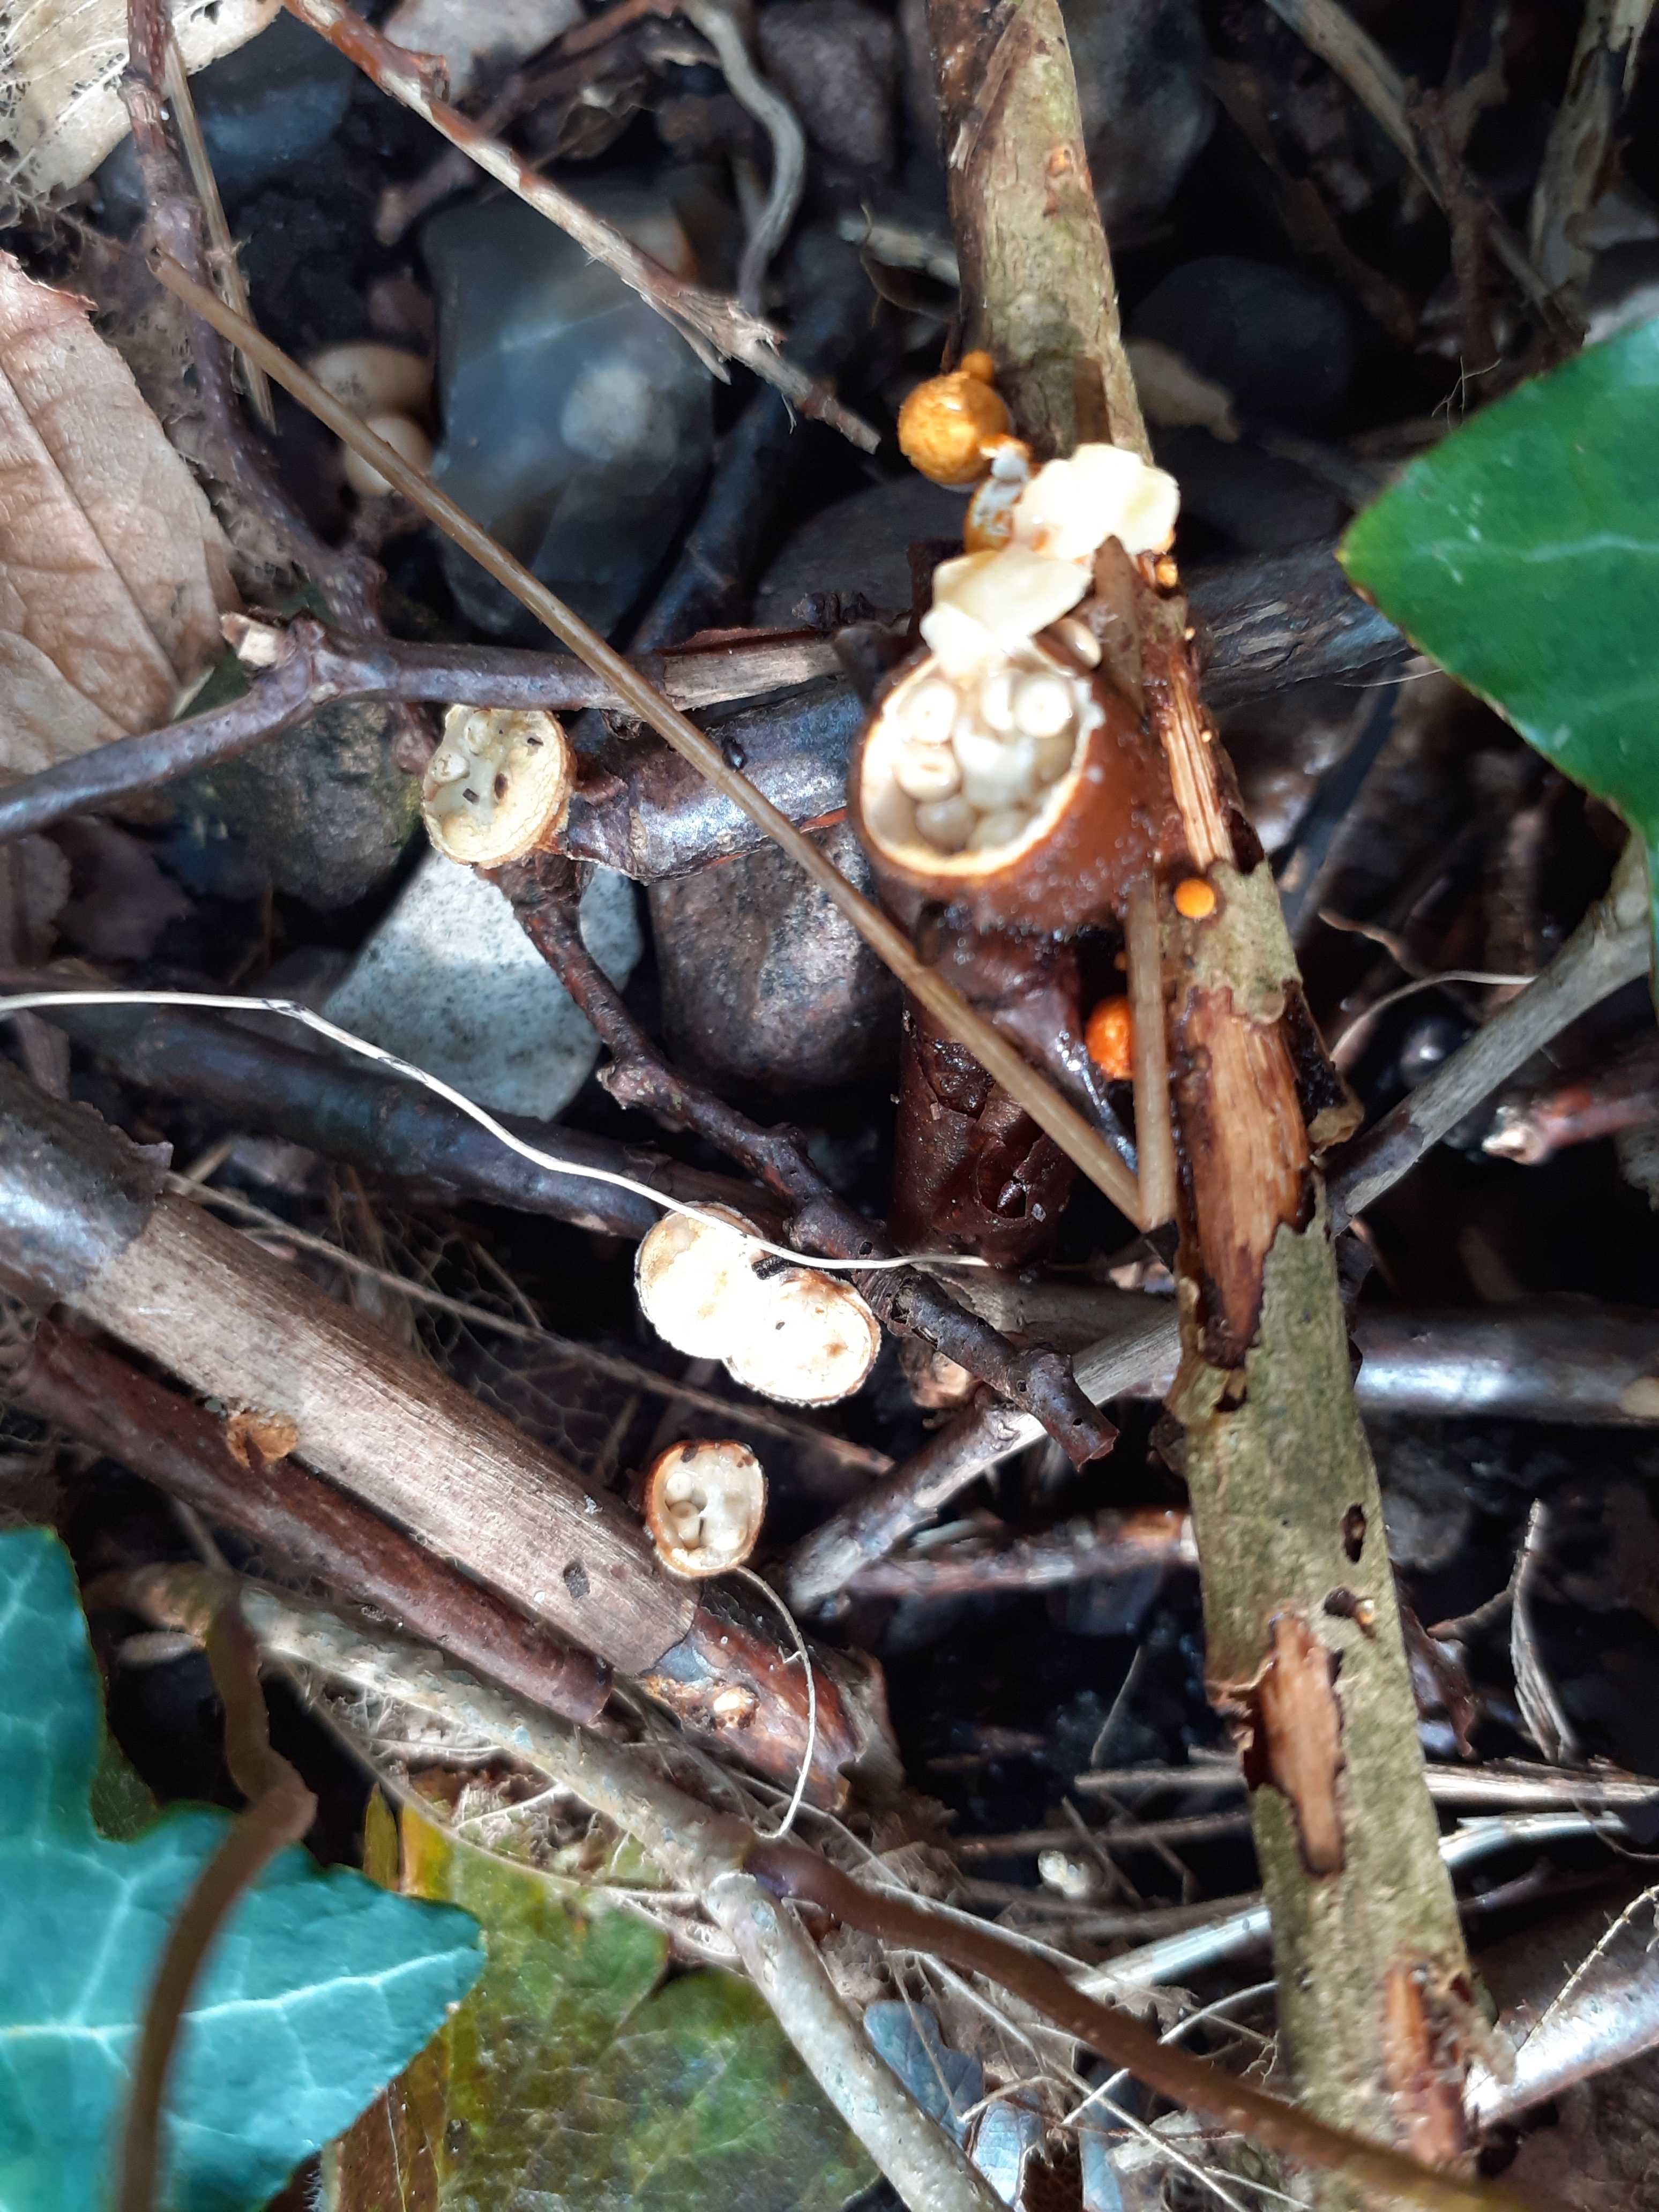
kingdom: Fungi
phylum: Basidiomycota
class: Agaricomycetes
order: Agaricales
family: Nidulariaceae
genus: Crucibulum
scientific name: Crucibulum crucibuliforme
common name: krukkesvamp
